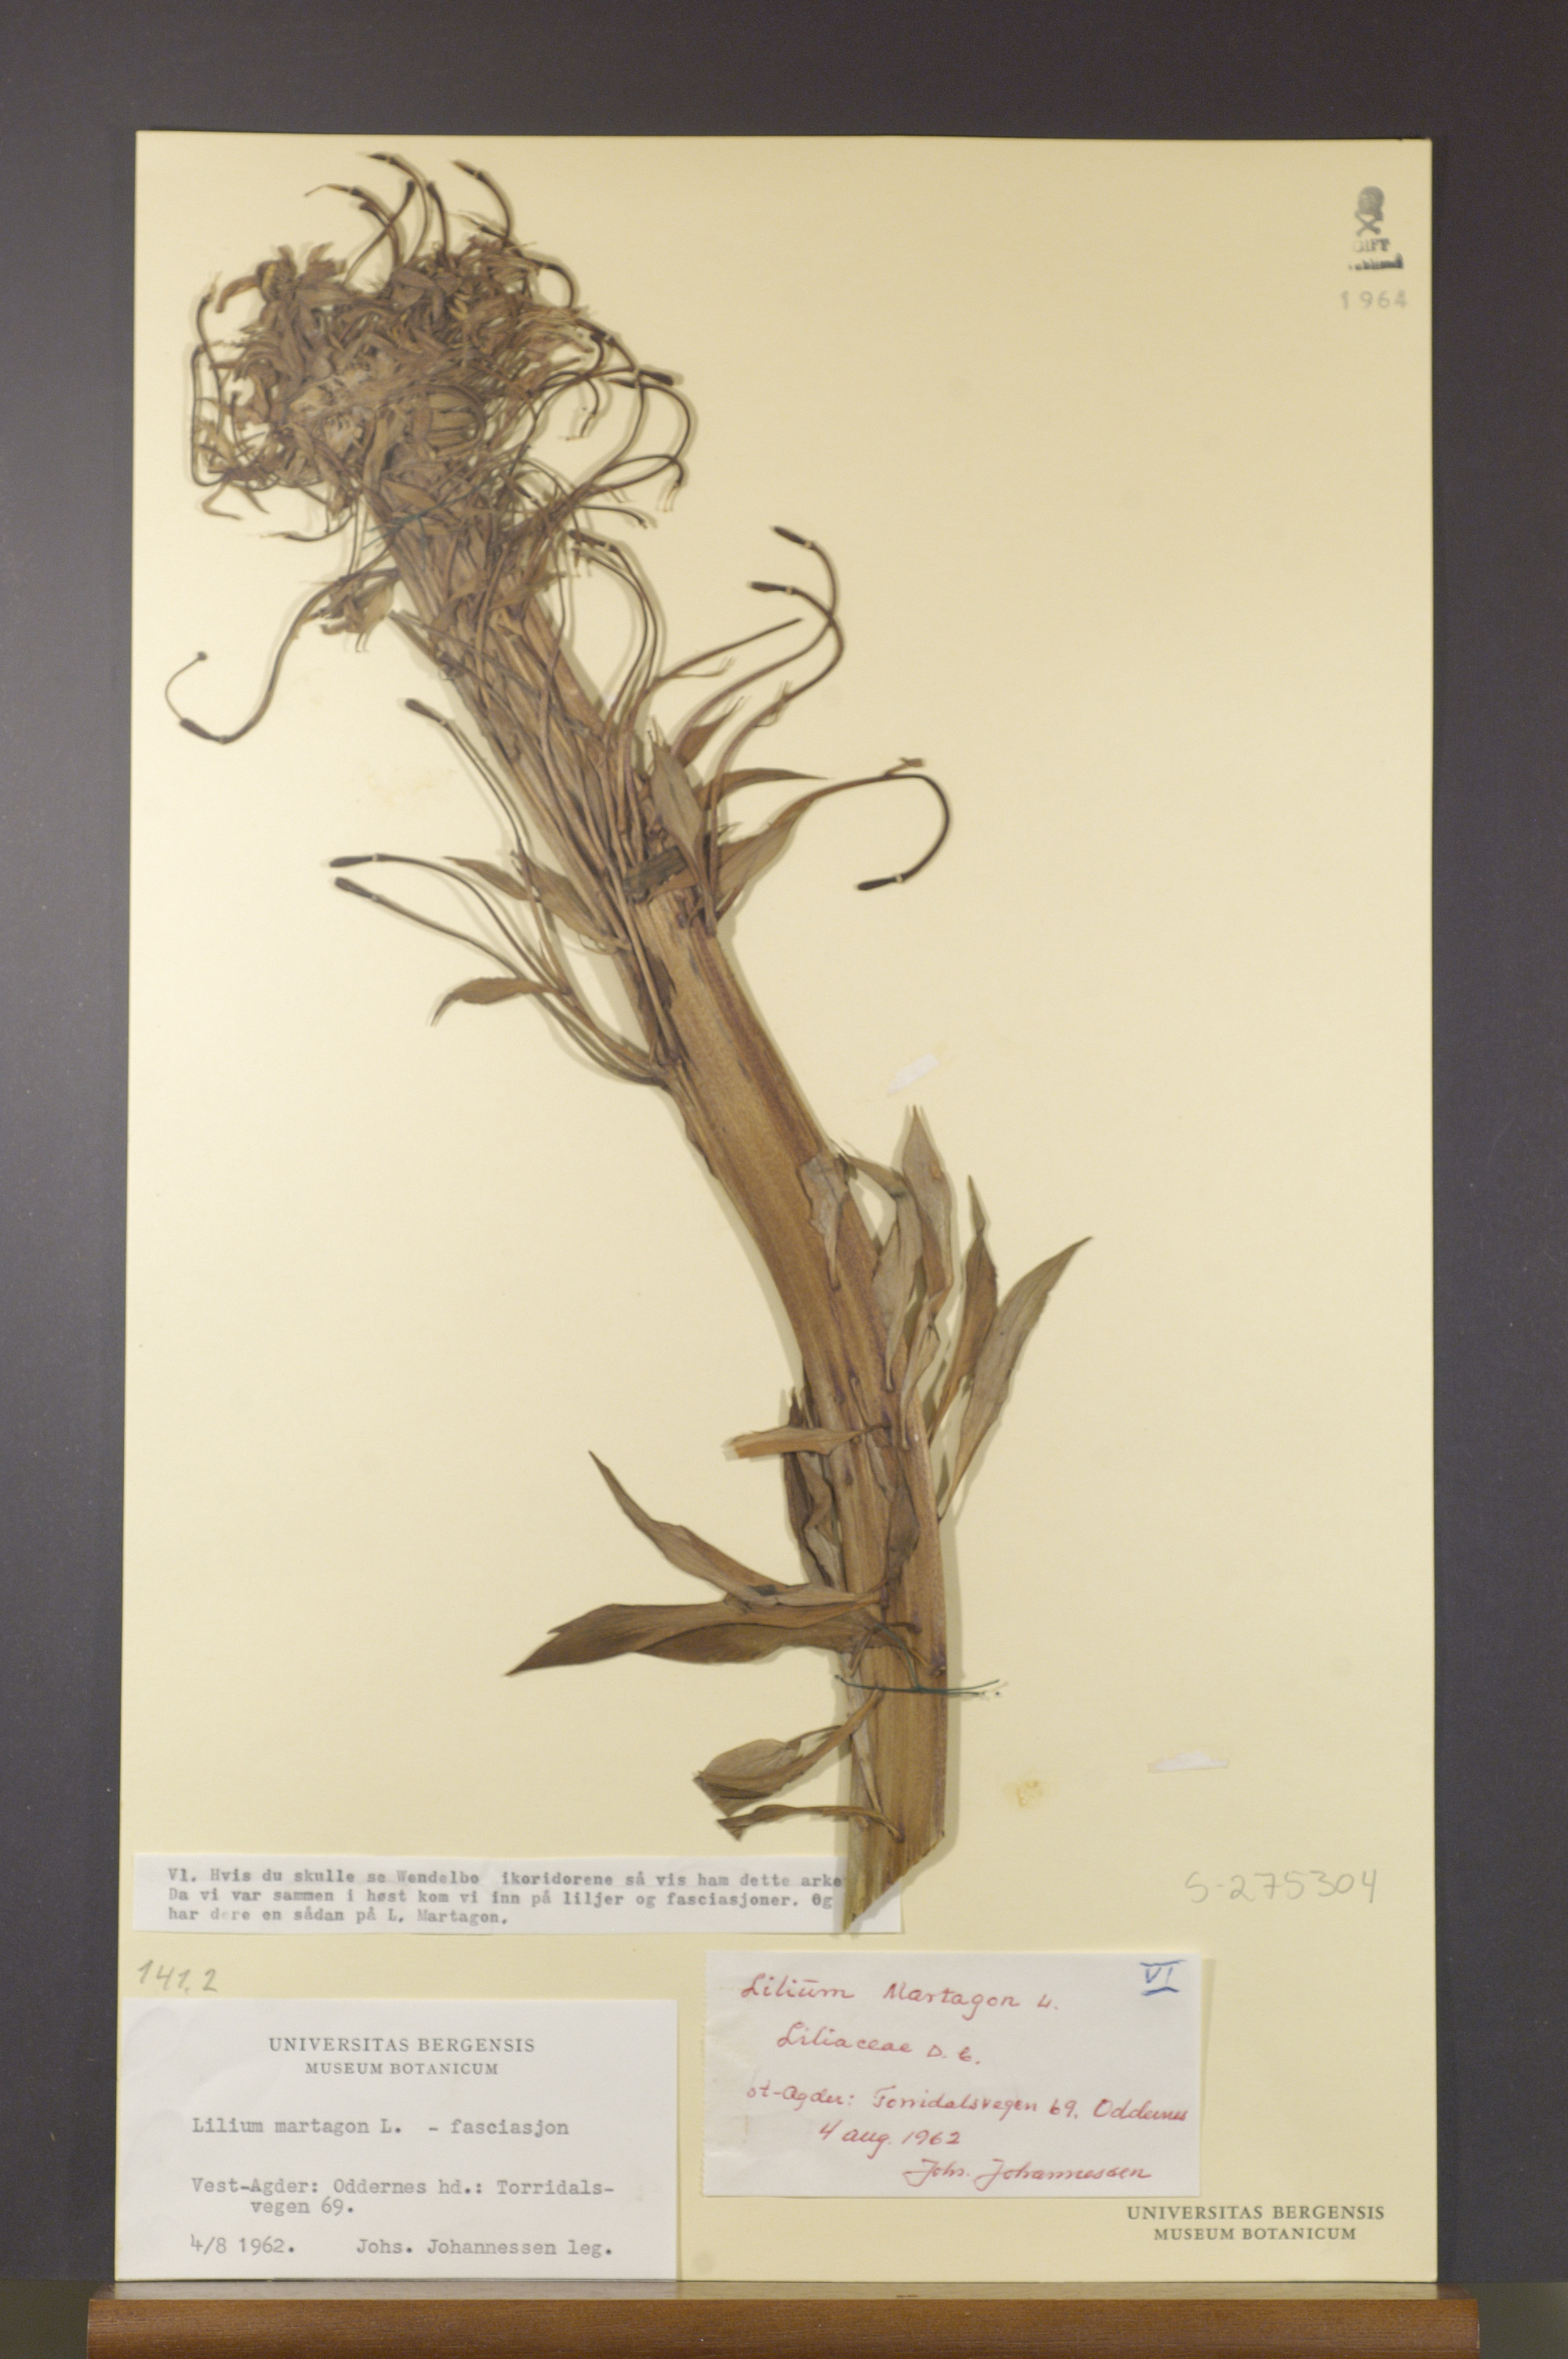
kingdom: Plantae
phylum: Tracheophyta
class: Liliopsida
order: Liliales
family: Liliaceae
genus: Lilium
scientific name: Lilium martagon
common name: Martagon lily
